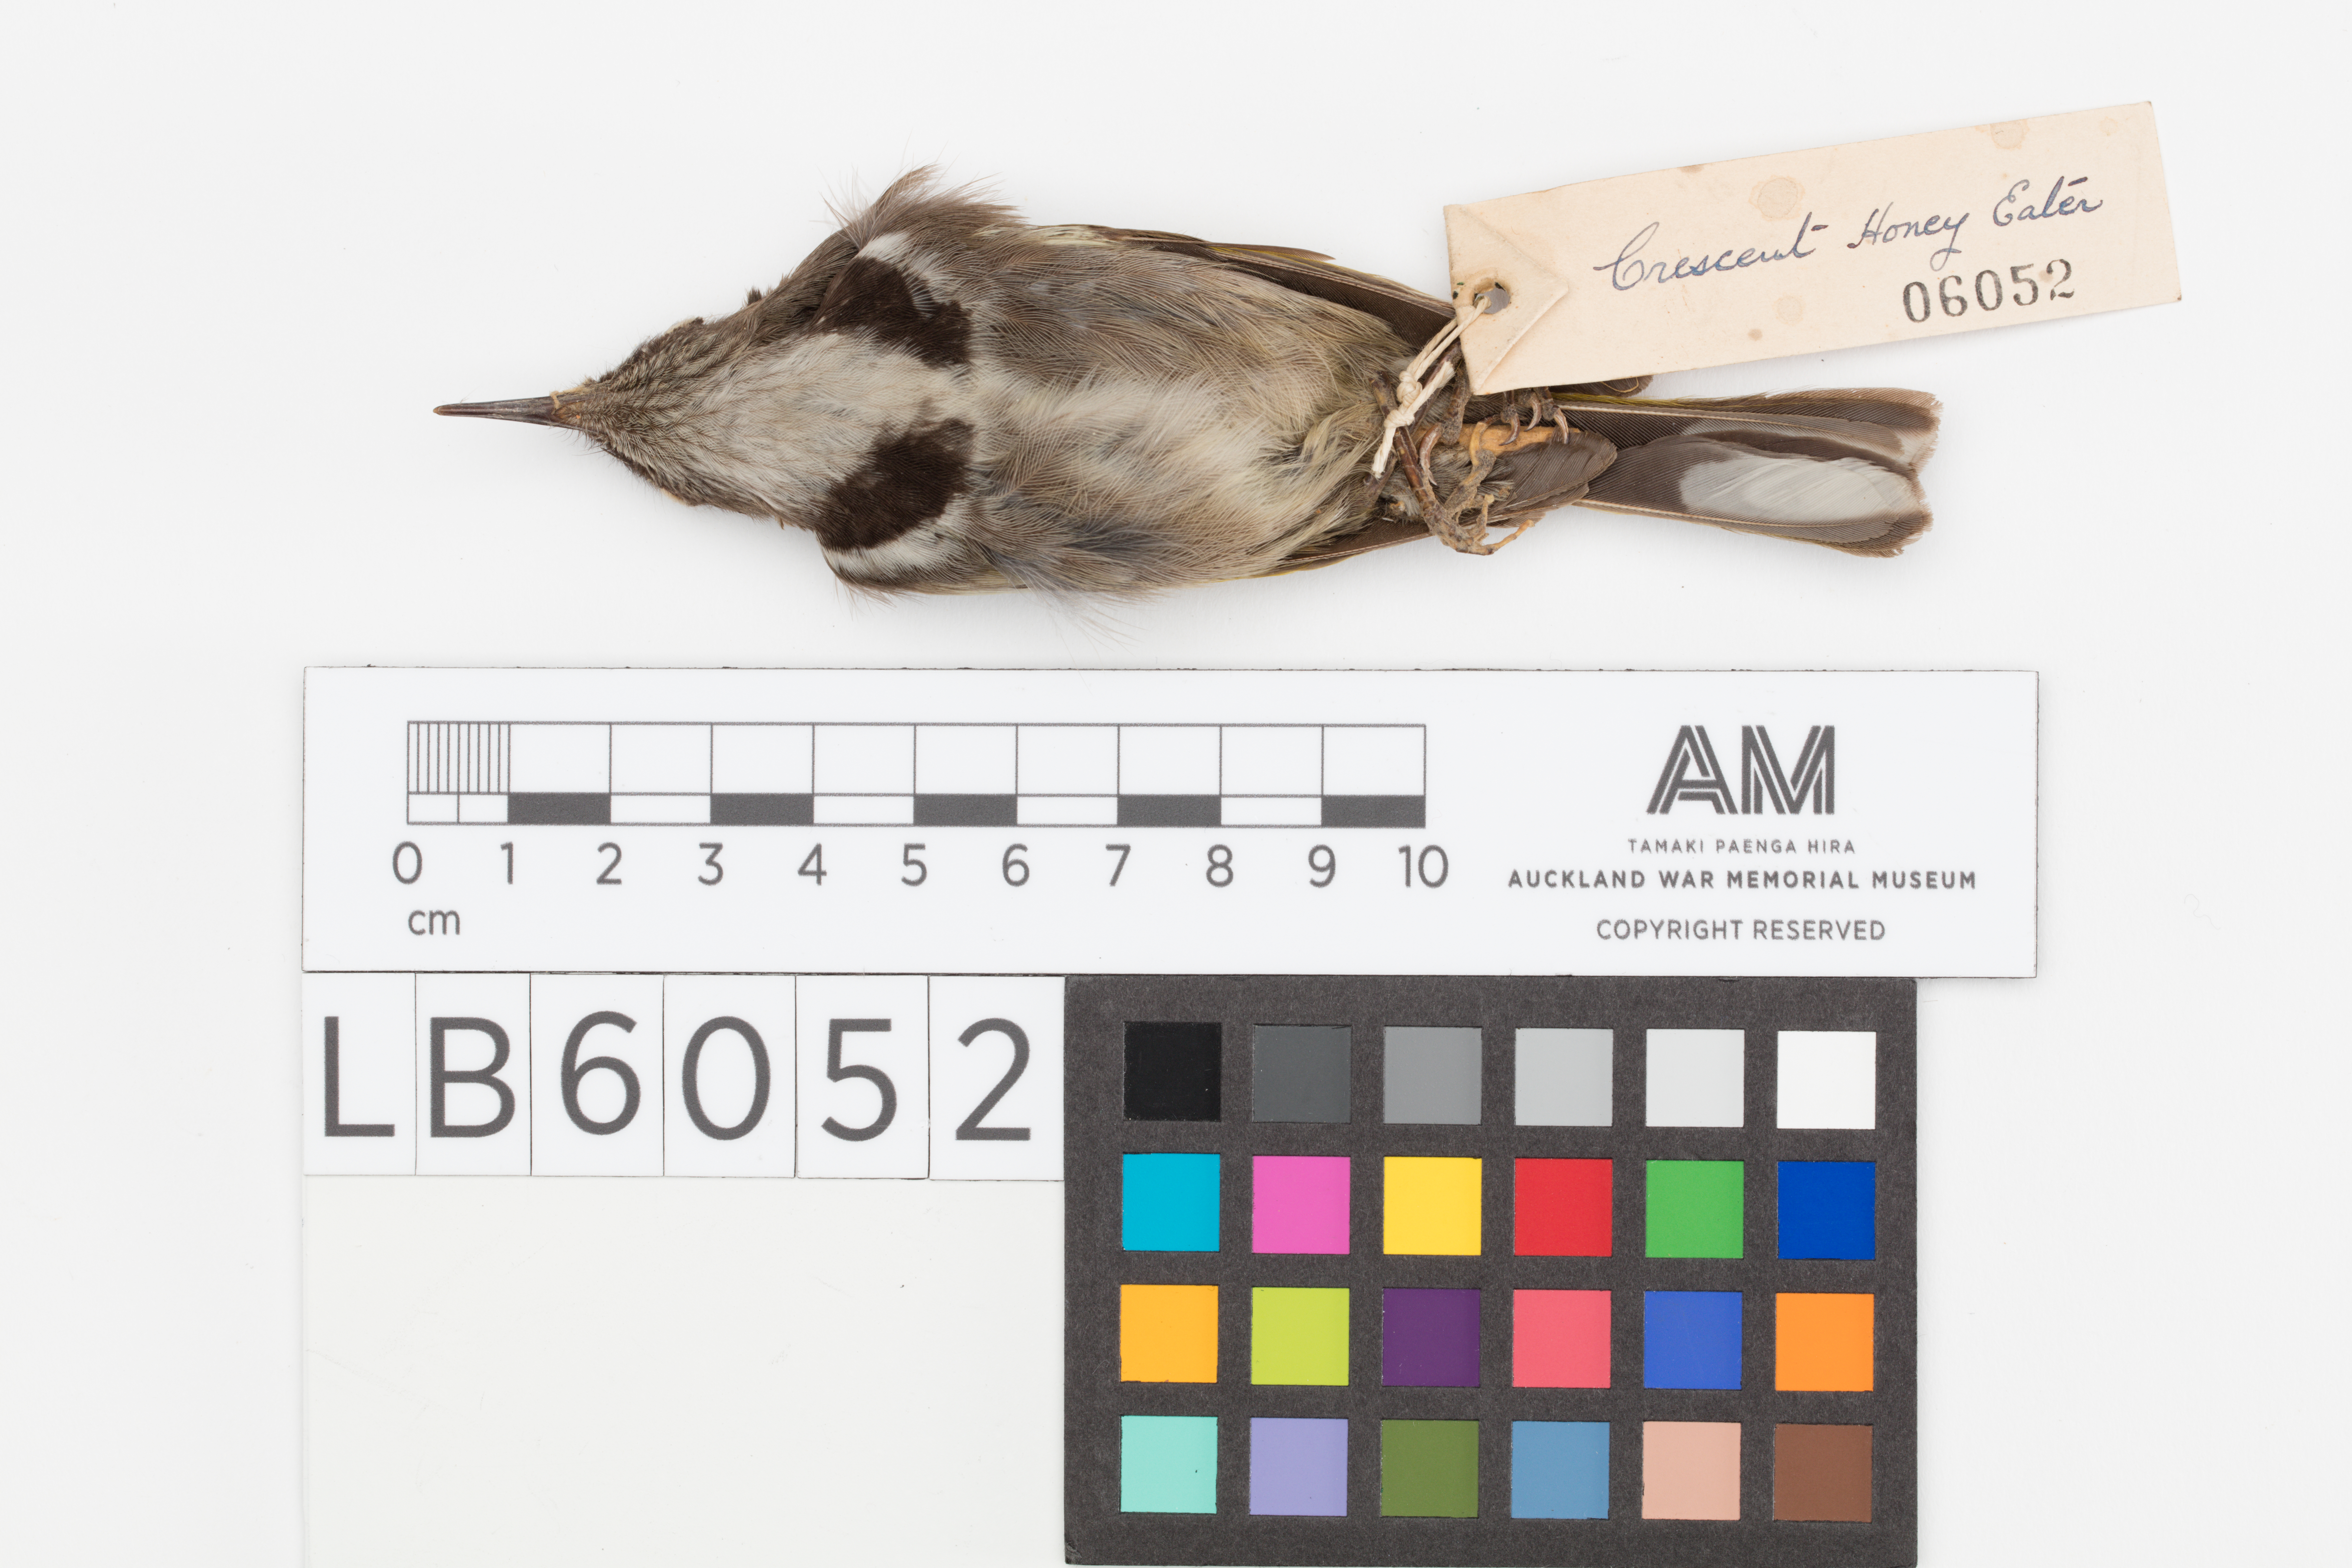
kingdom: Animalia
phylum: Chordata
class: Aves
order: Passeriformes
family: Meliphagidae
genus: Phylidonyris
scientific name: Phylidonyris pyrrhopterus
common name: Crescent honeyeater
